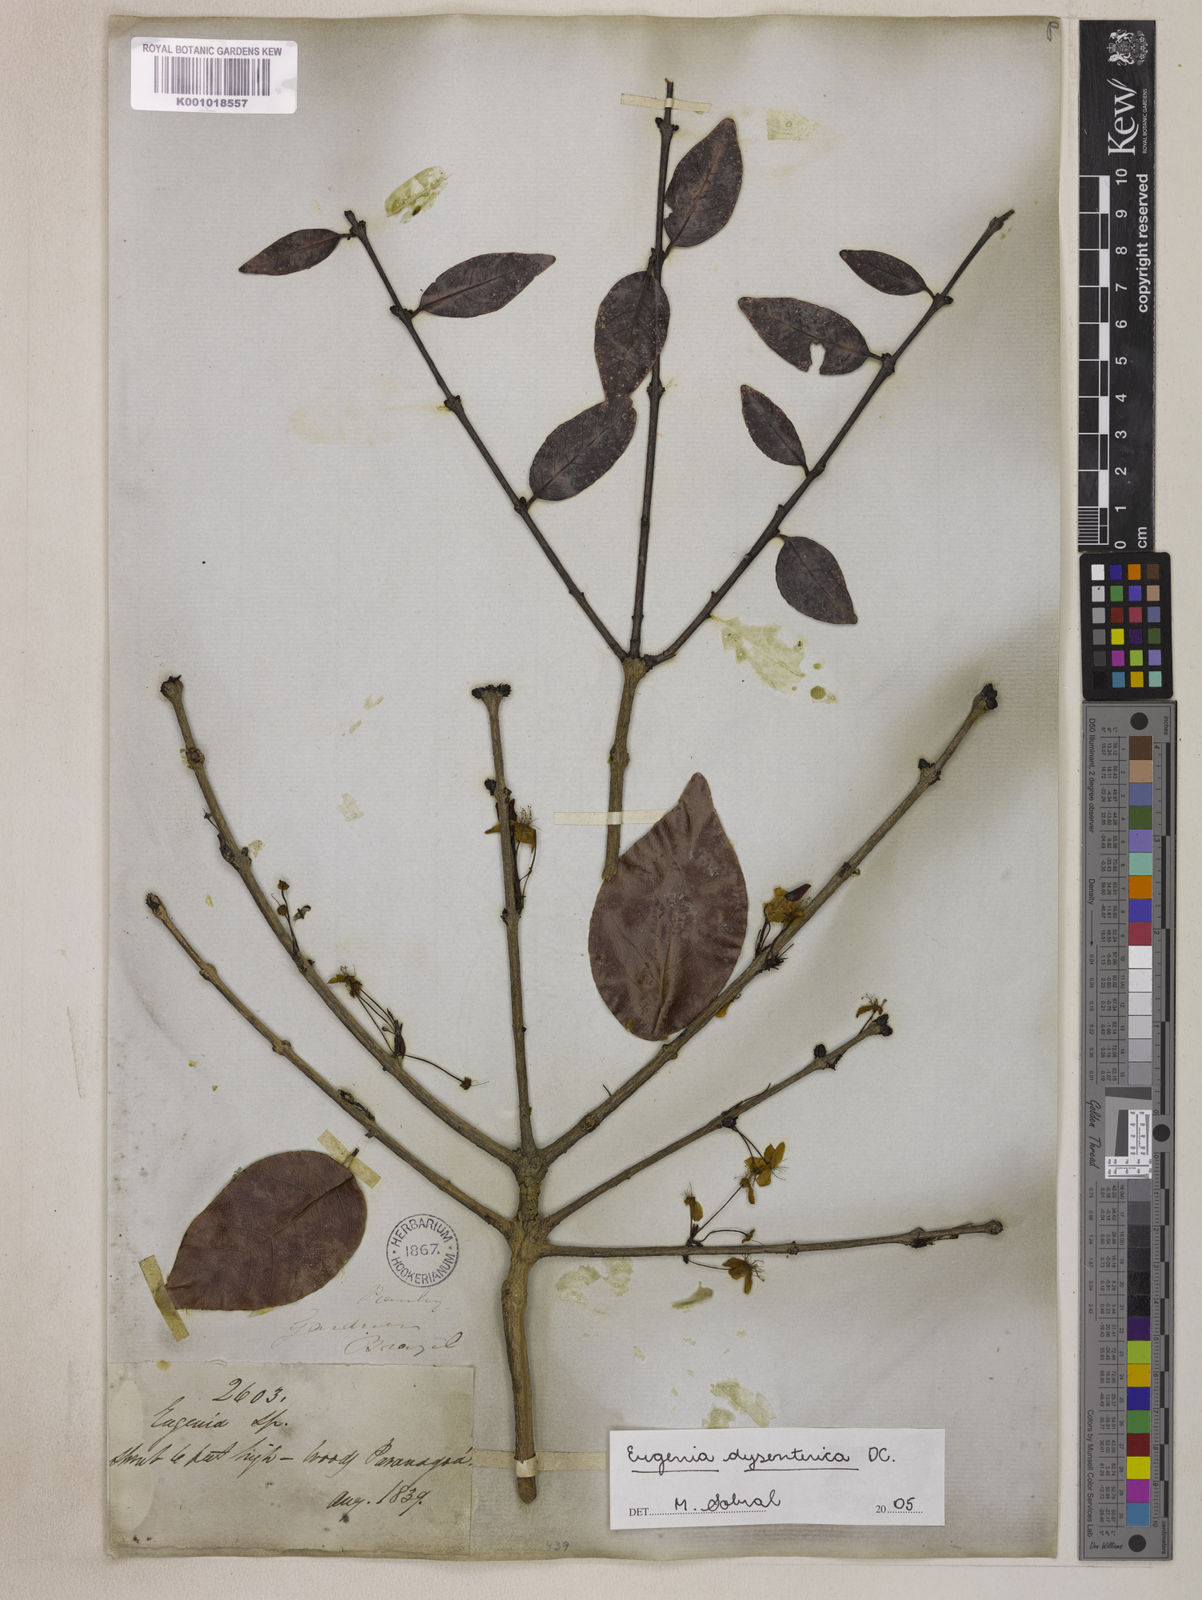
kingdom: Plantae
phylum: Tracheophyta
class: Magnoliopsida
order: Myrtales
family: Myrtaceae
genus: Eugenia
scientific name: Eugenia dysenterica
